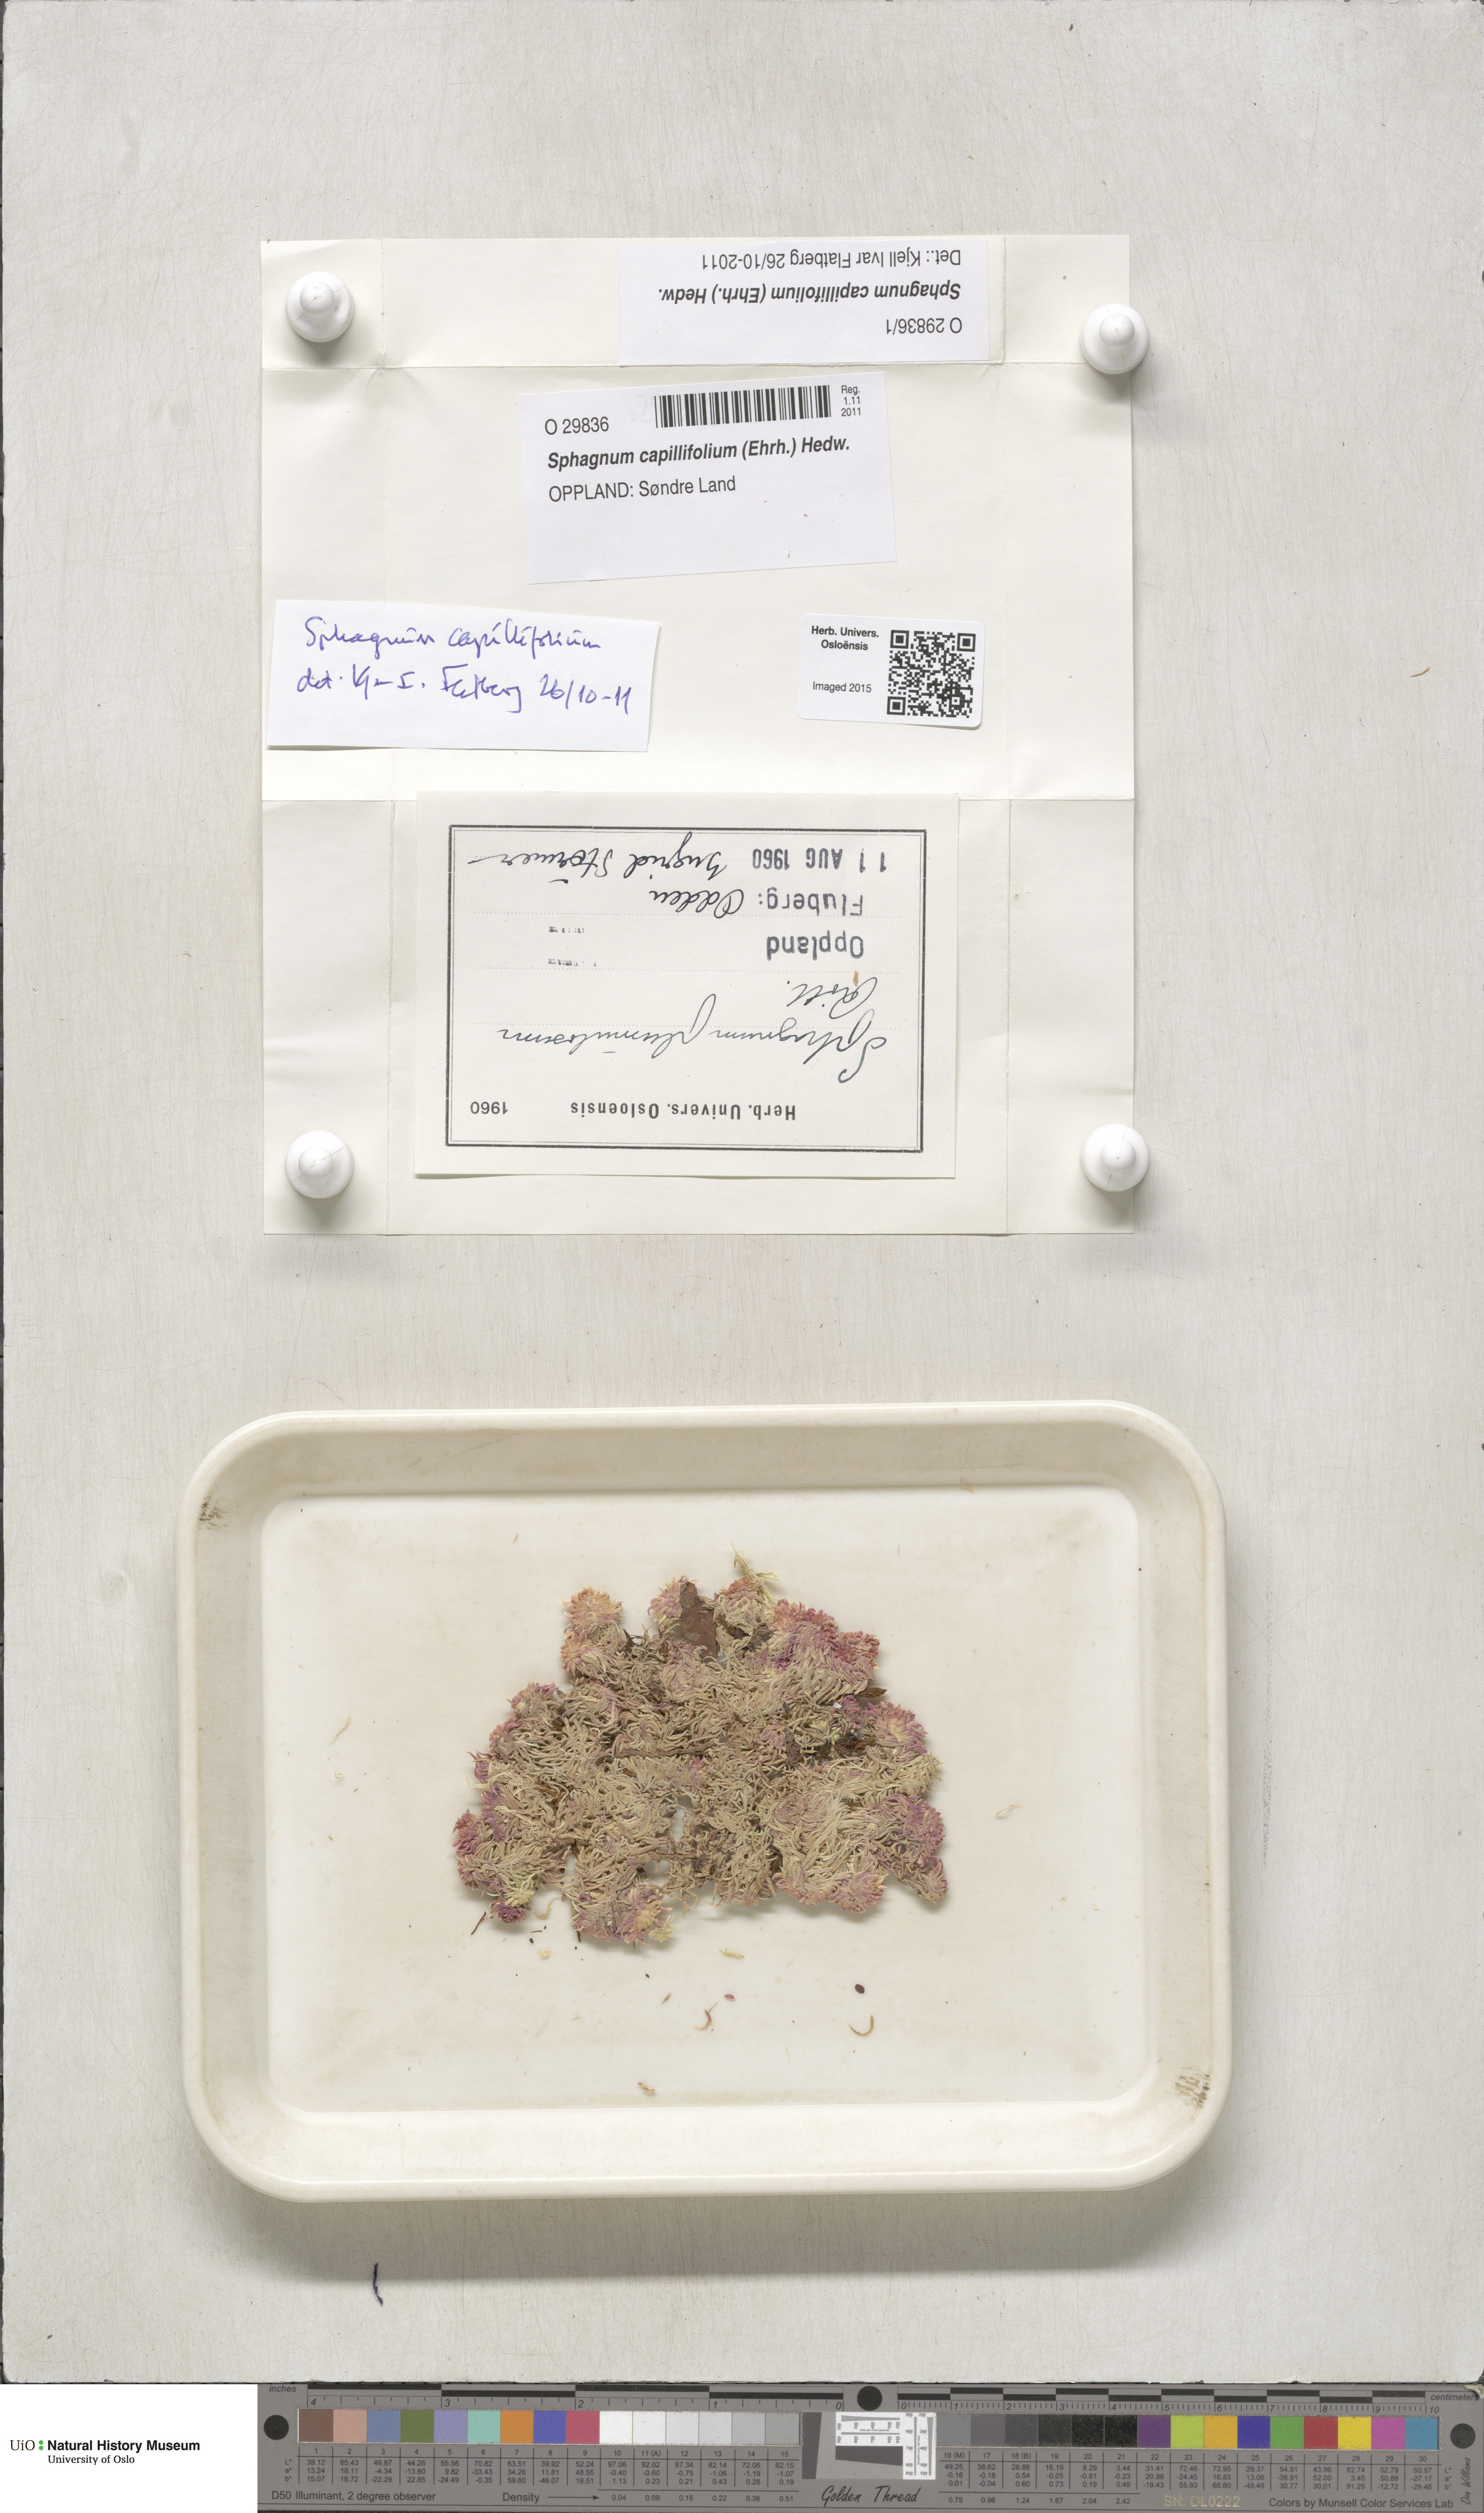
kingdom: Plantae
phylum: Bryophyta
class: Sphagnopsida
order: Sphagnales
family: Sphagnaceae
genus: Sphagnum
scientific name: Sphagnum capillifolium
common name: Small red peat moss
